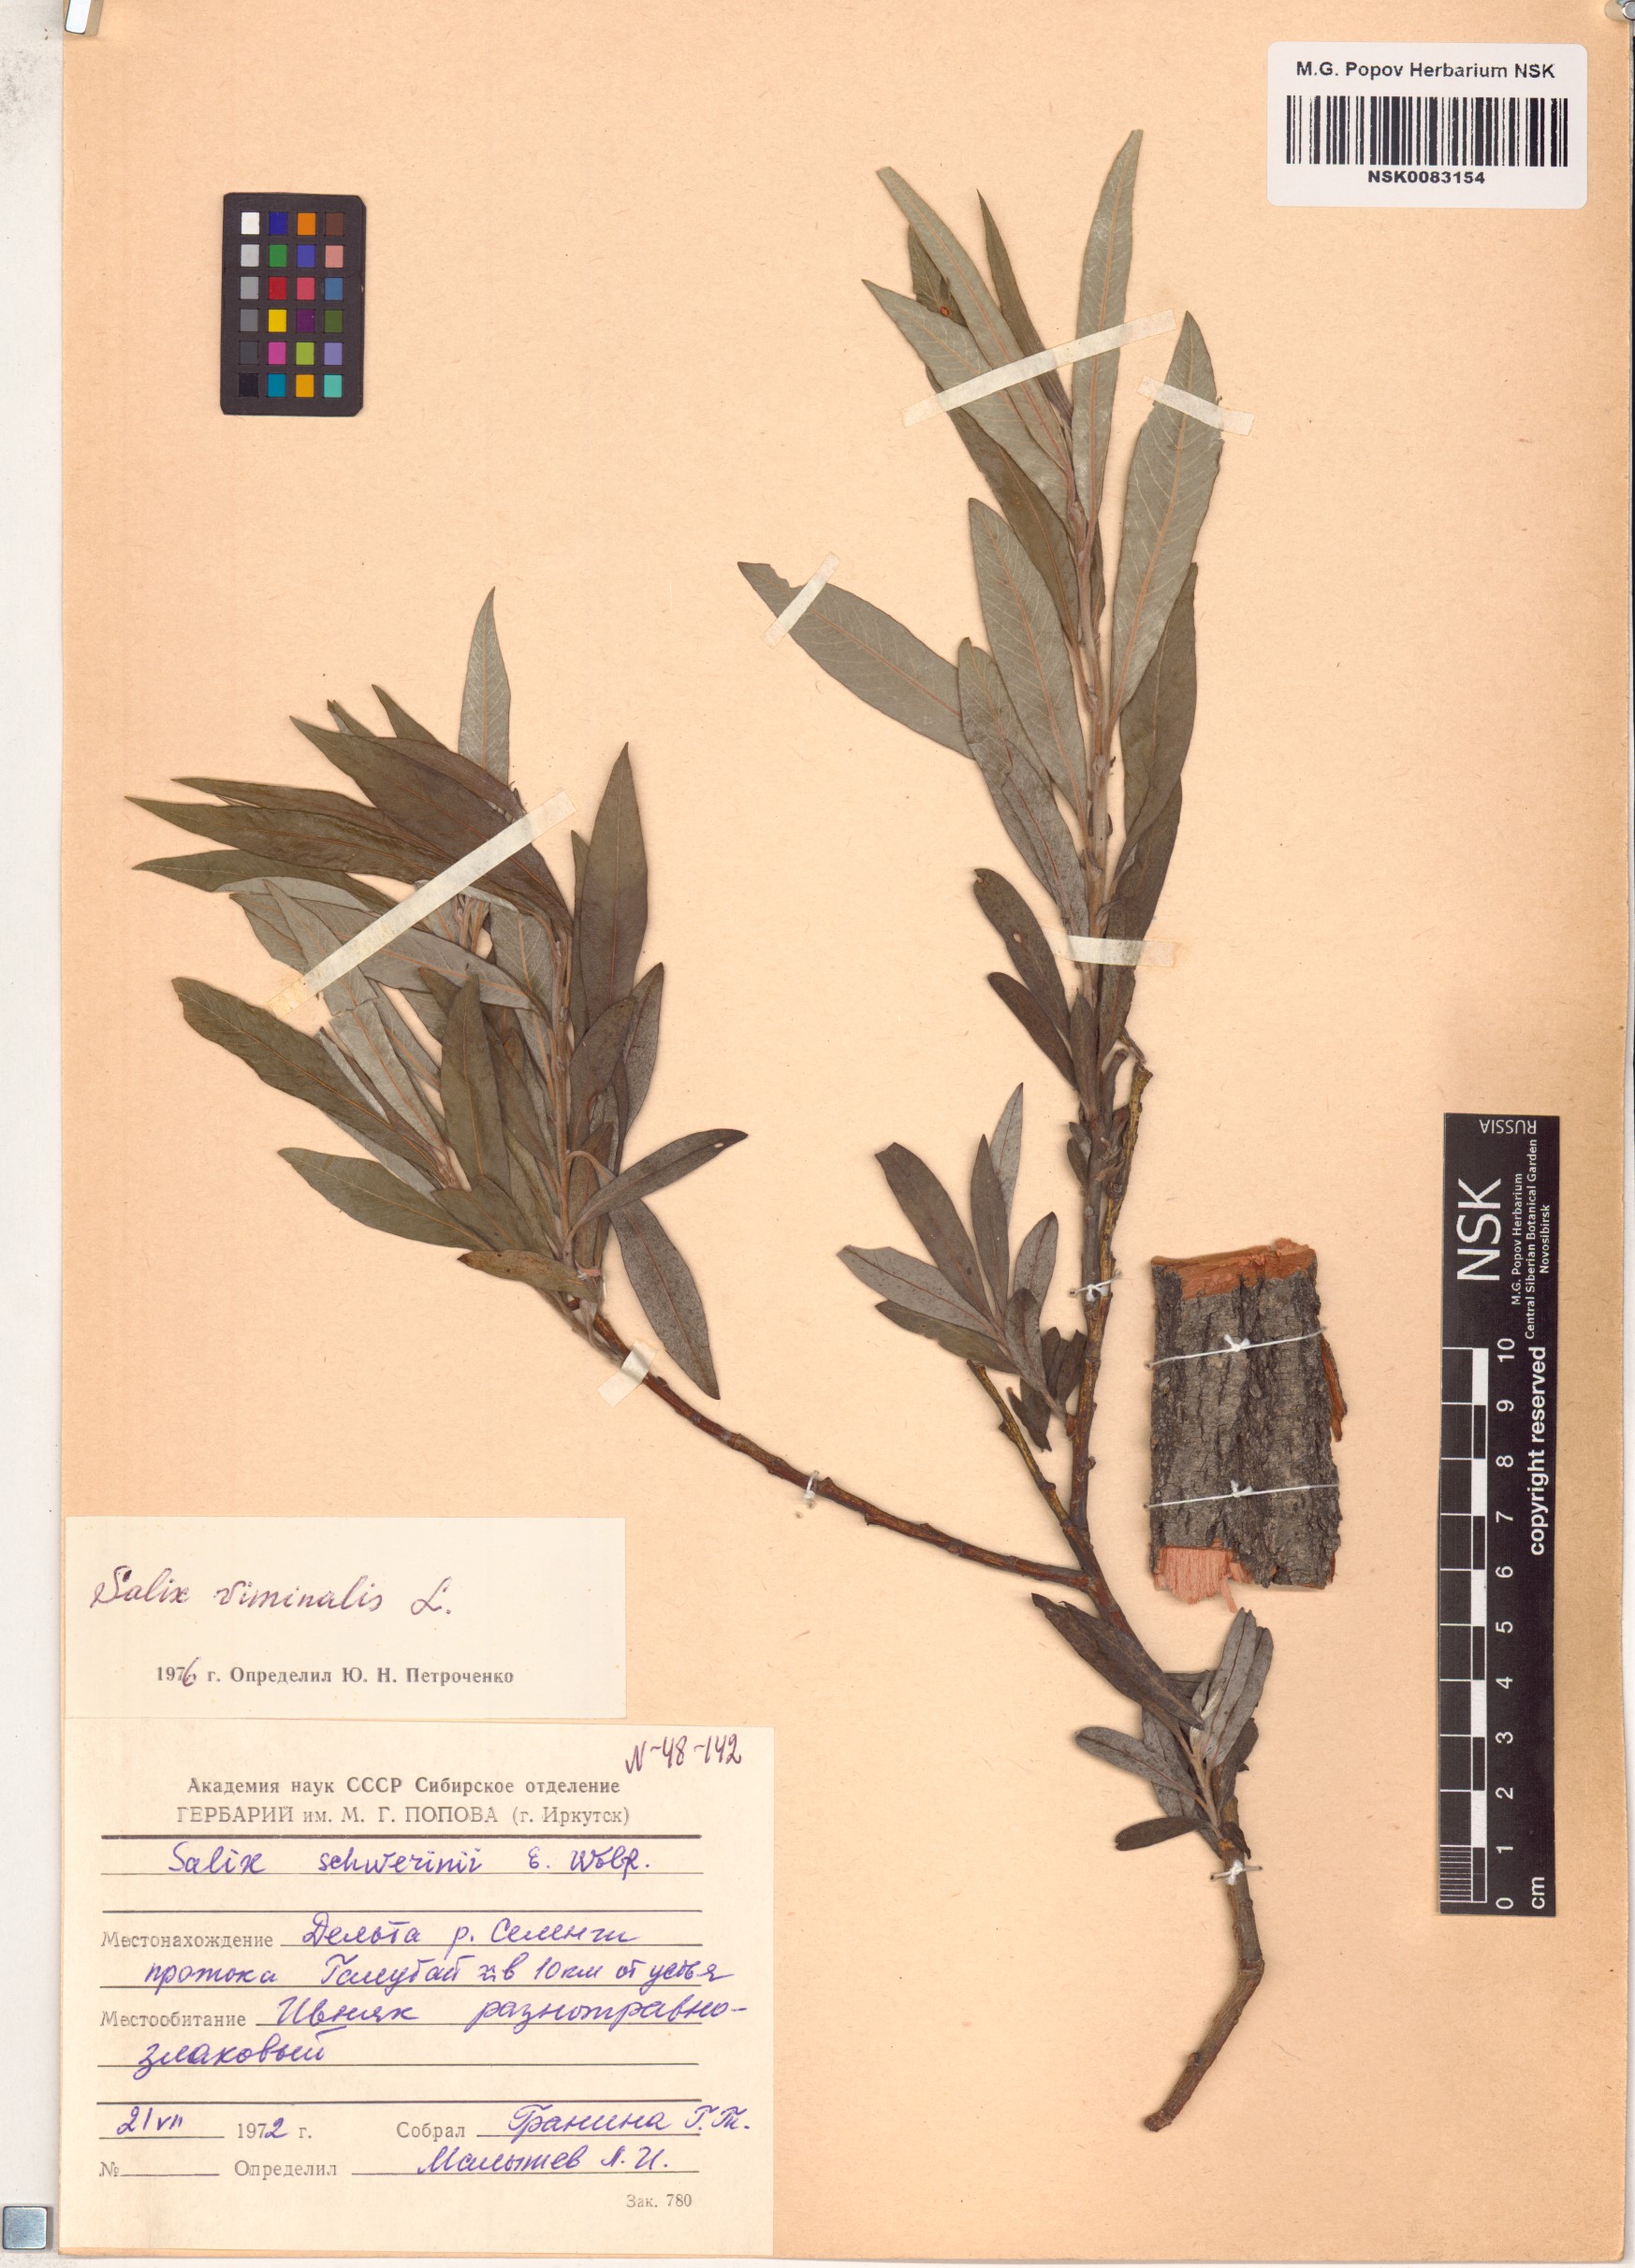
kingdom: Plantae
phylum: Tracheophyta
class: Magnoliopsida
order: Malpighiales
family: Salicaceae
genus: Salix
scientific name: Salix viminalis
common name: Osier
